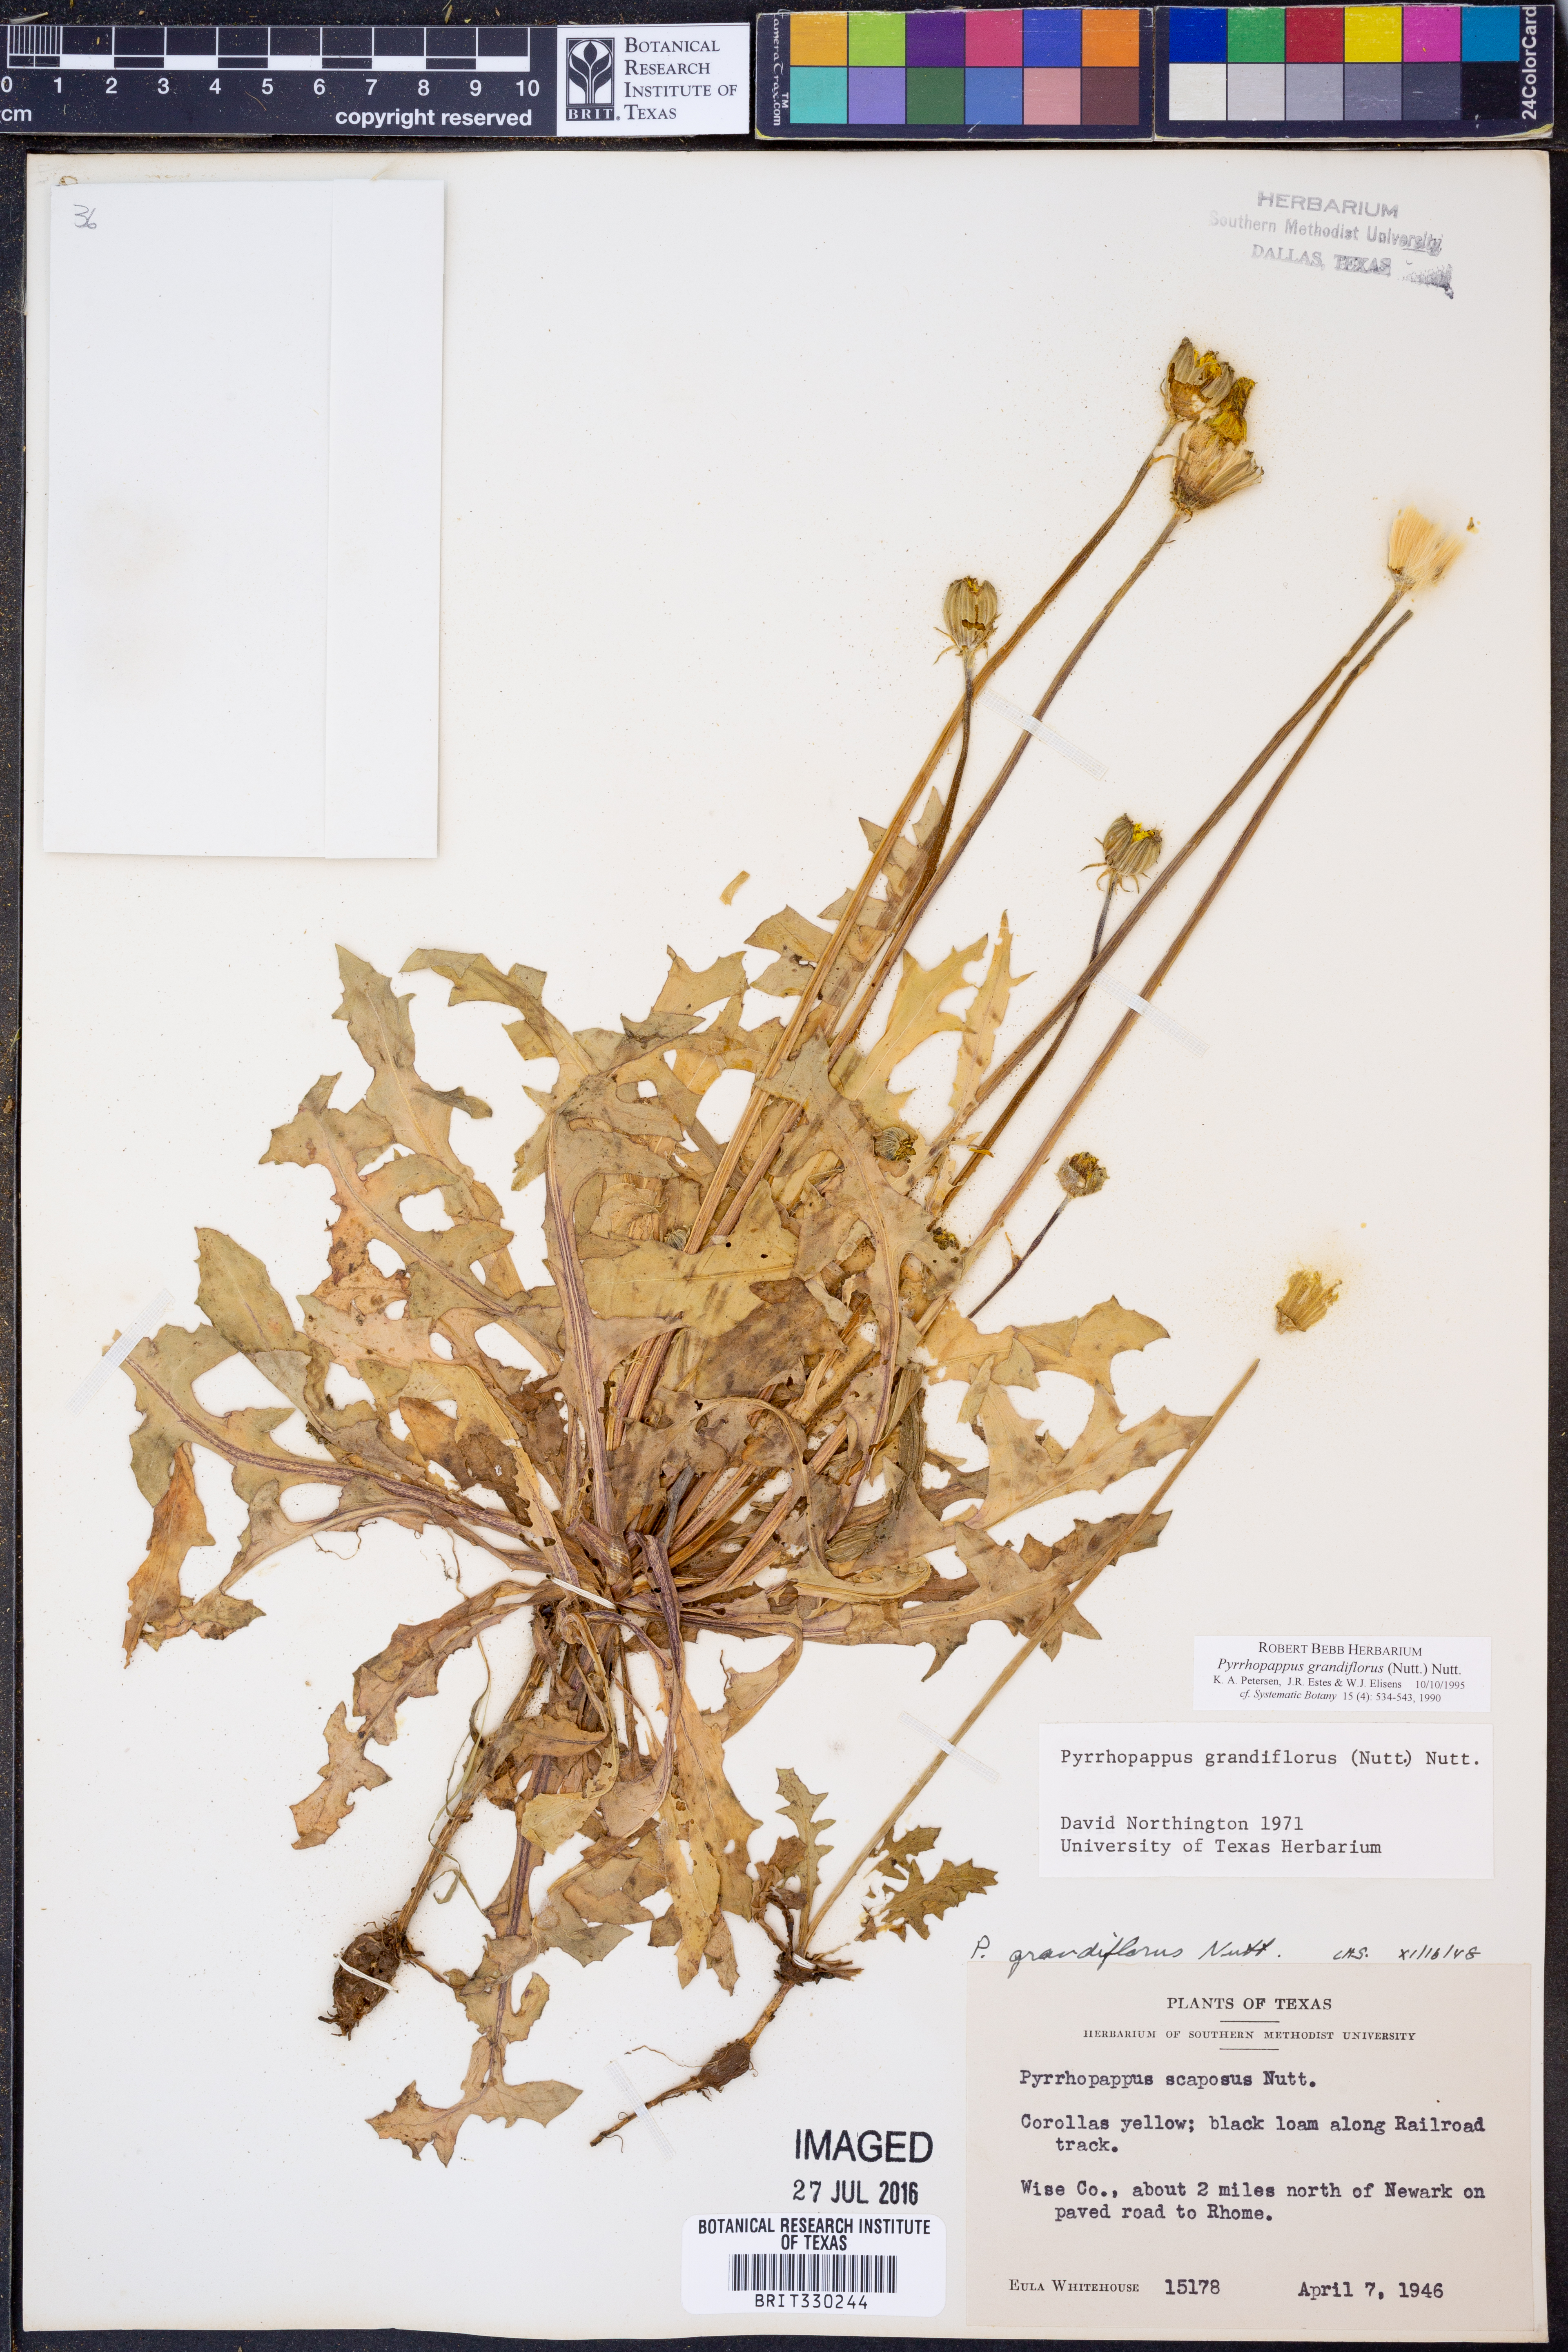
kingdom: Plantae
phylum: Tracheophyta
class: Magnoliopsida
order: Asterales
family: Asteraceae
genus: Pyrrhopappus
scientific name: Pyrrhopappus grandiflorus
